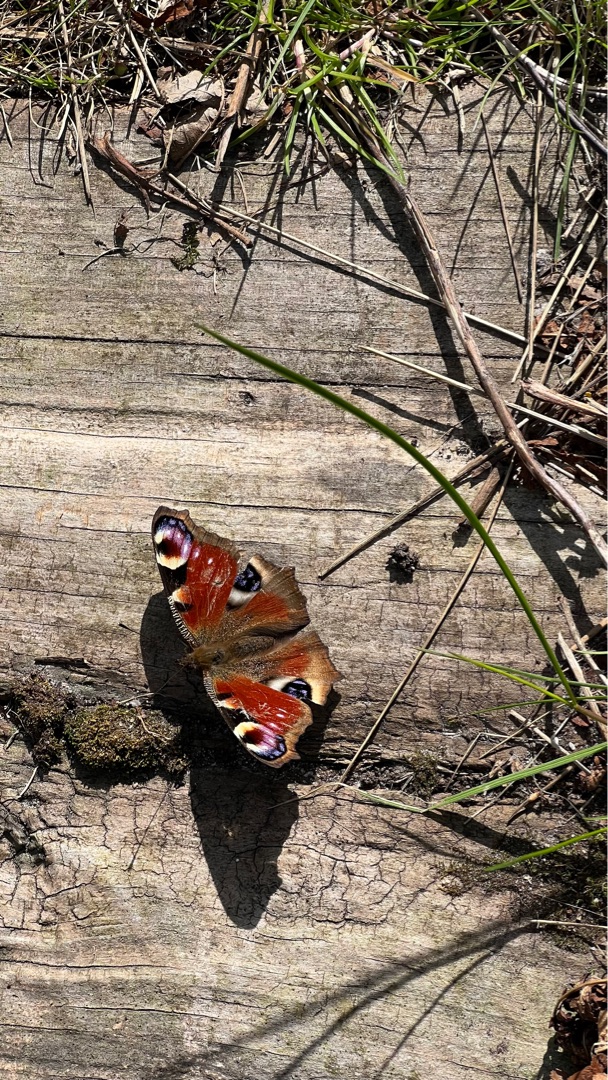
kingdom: Animalia
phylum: Arthropoda
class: Insecta
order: Lepidoptera
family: Nymphalidae
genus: Aglais
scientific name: Aglais io
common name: Dagpåfugleøje
